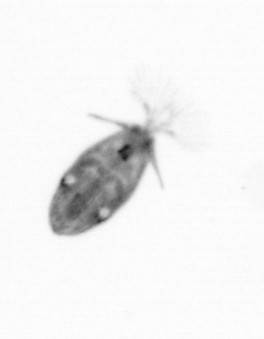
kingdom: Animalia
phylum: Arthropoda
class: Maxillopoda
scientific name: Maxillopoda
